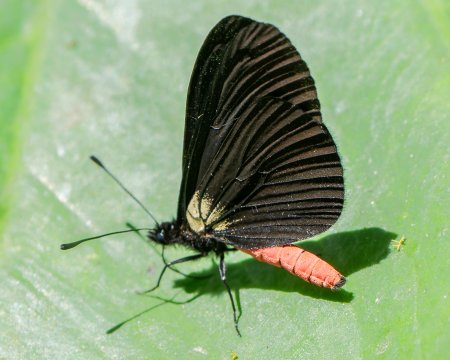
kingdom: Animalia
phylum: Arthropoda
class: Insecta
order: Lepidoptera
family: Nymphalidae
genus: Acraea
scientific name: Acraea Altinote neleus
